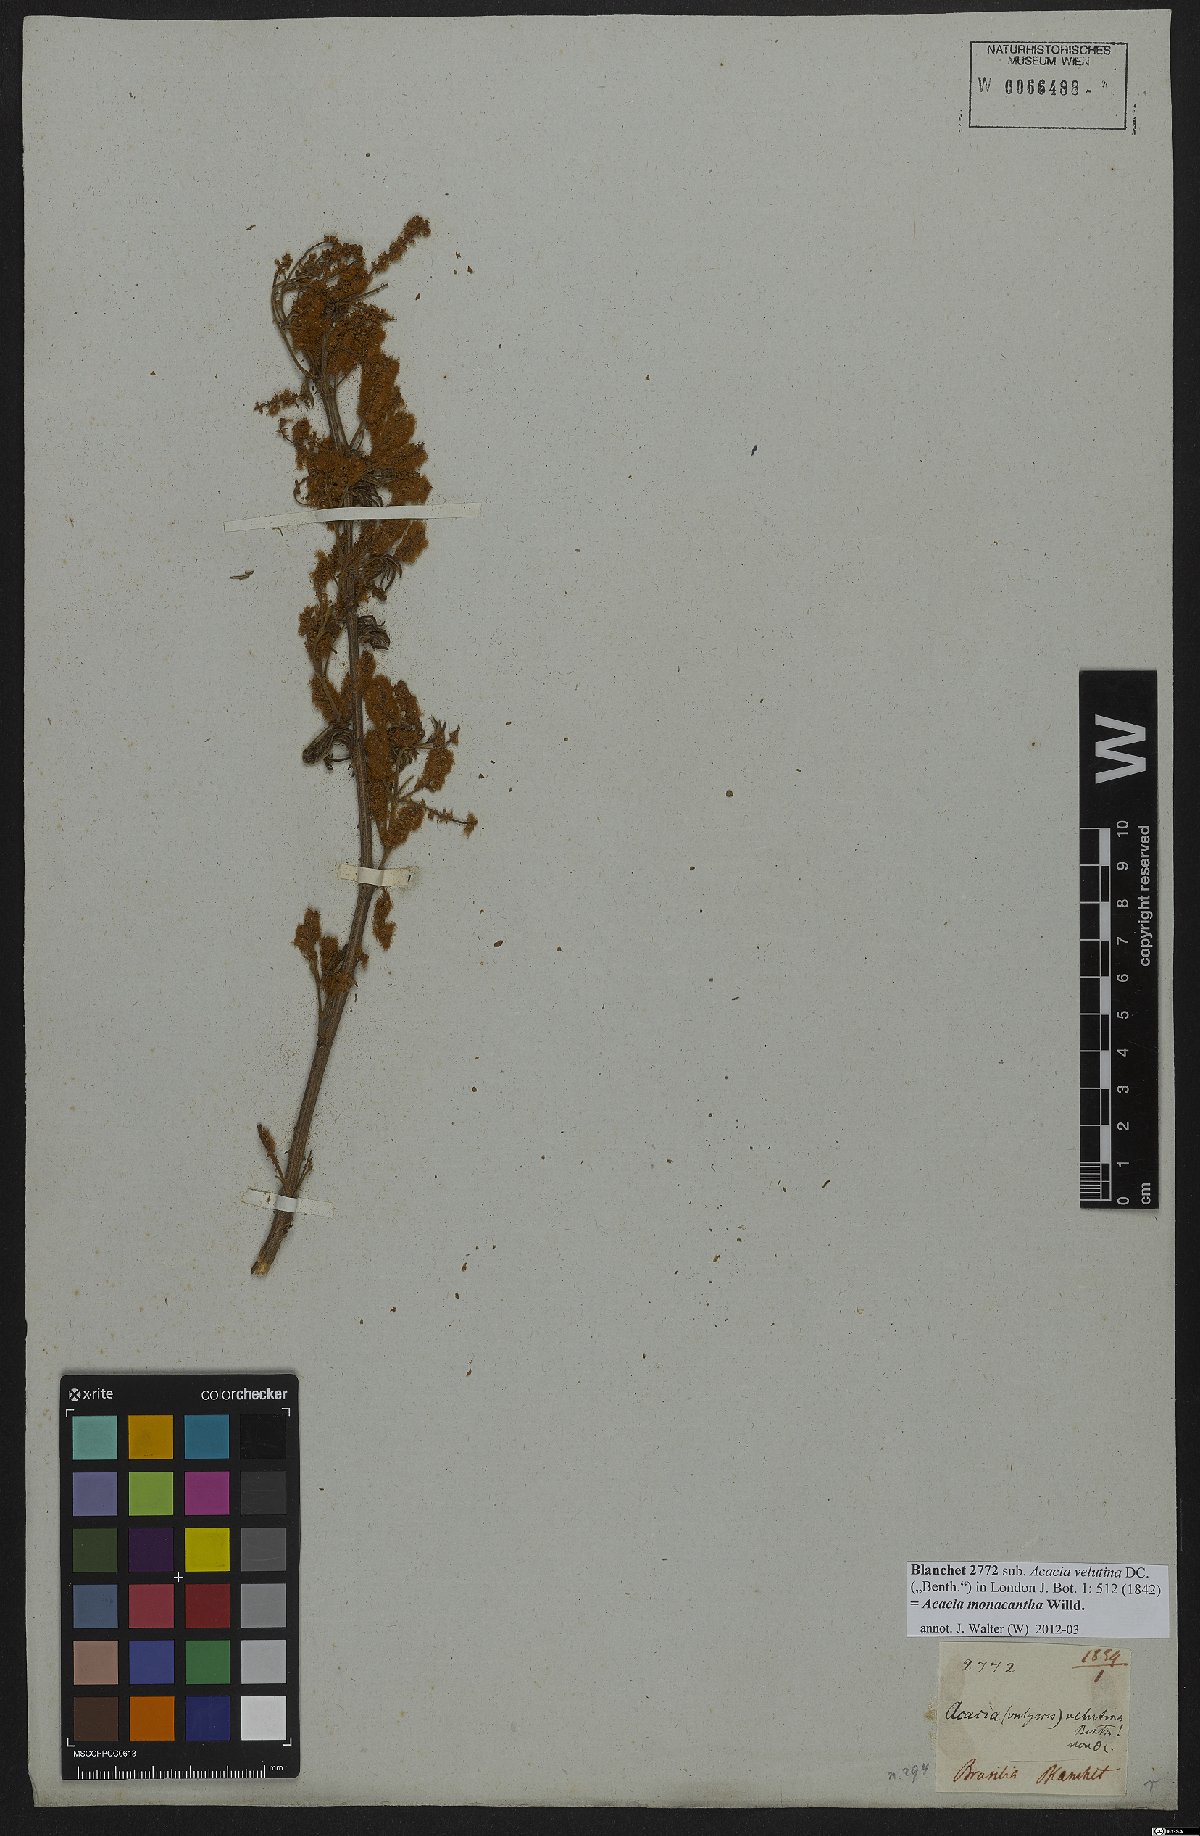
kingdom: Plantae
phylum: Tracheophyta
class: Magnoliopsida
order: Fabales
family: Fabaceae
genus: Senegalia
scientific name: Senegalia monacantha
